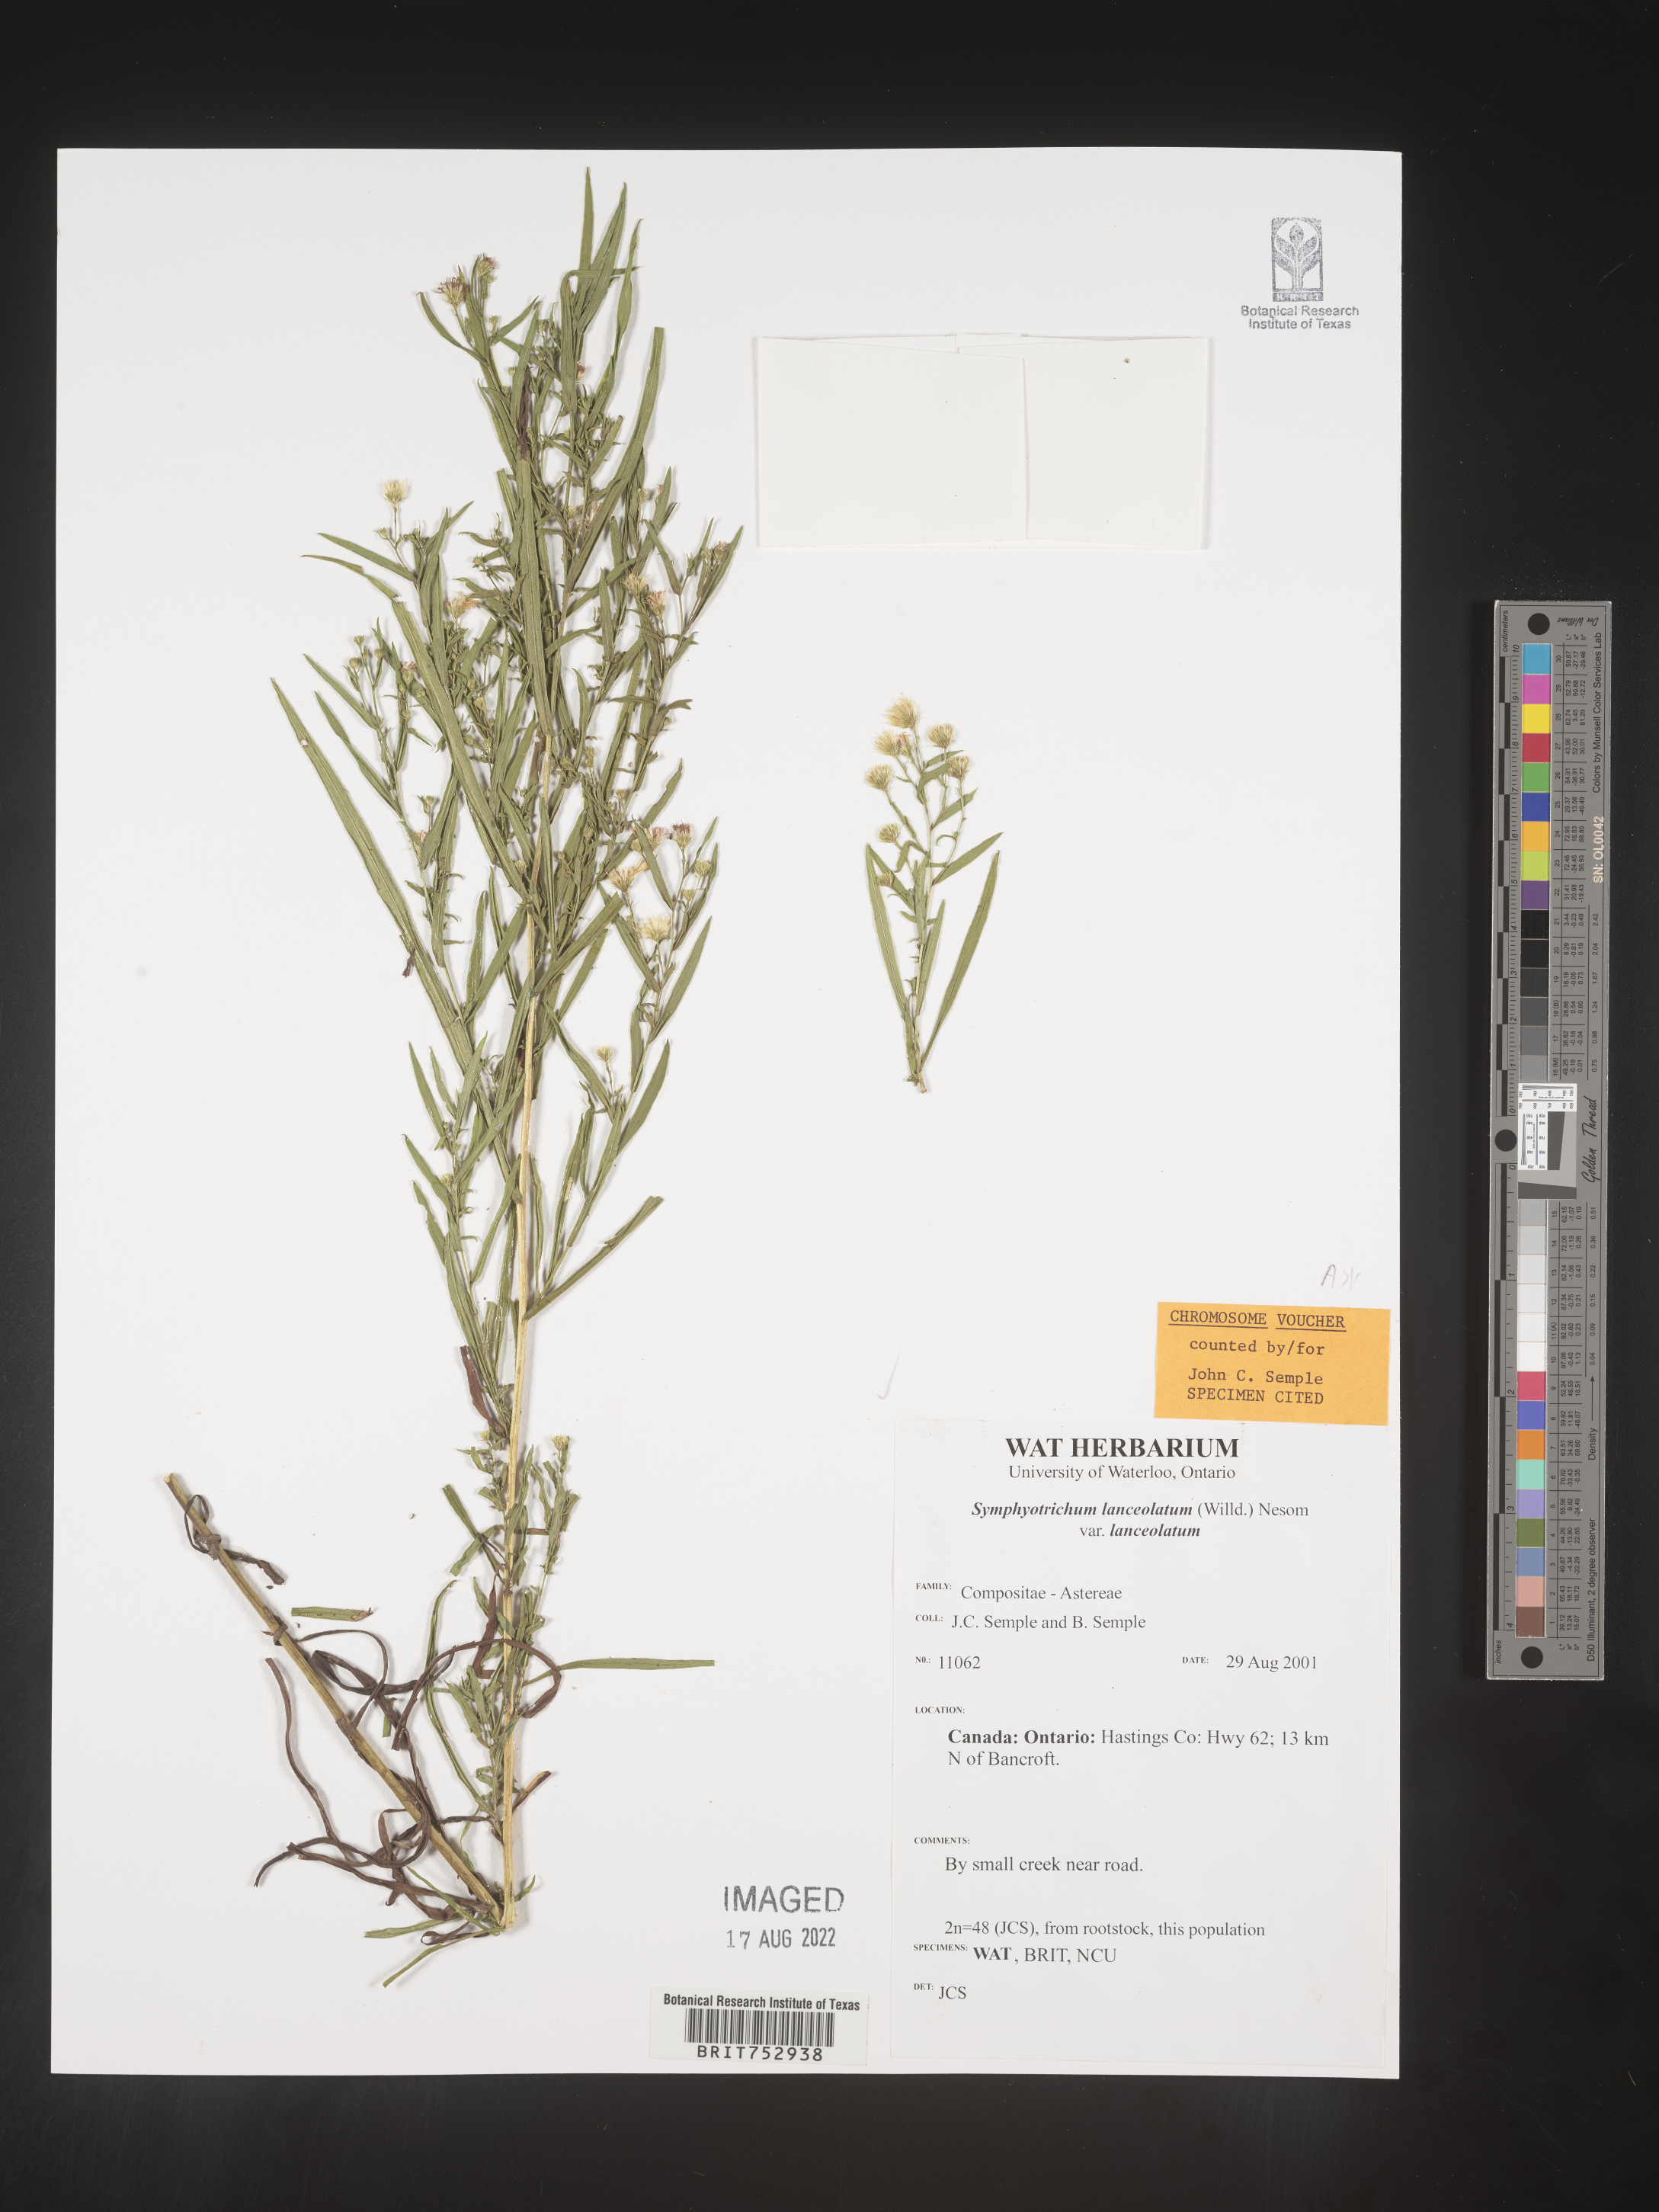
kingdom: Plantae
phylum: Tracheophyta
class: Magnoliopsida
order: Asterales
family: Asteraceae
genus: Symphyotrichum
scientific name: Symphyotrichum lanceolatum
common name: Panicled aster
